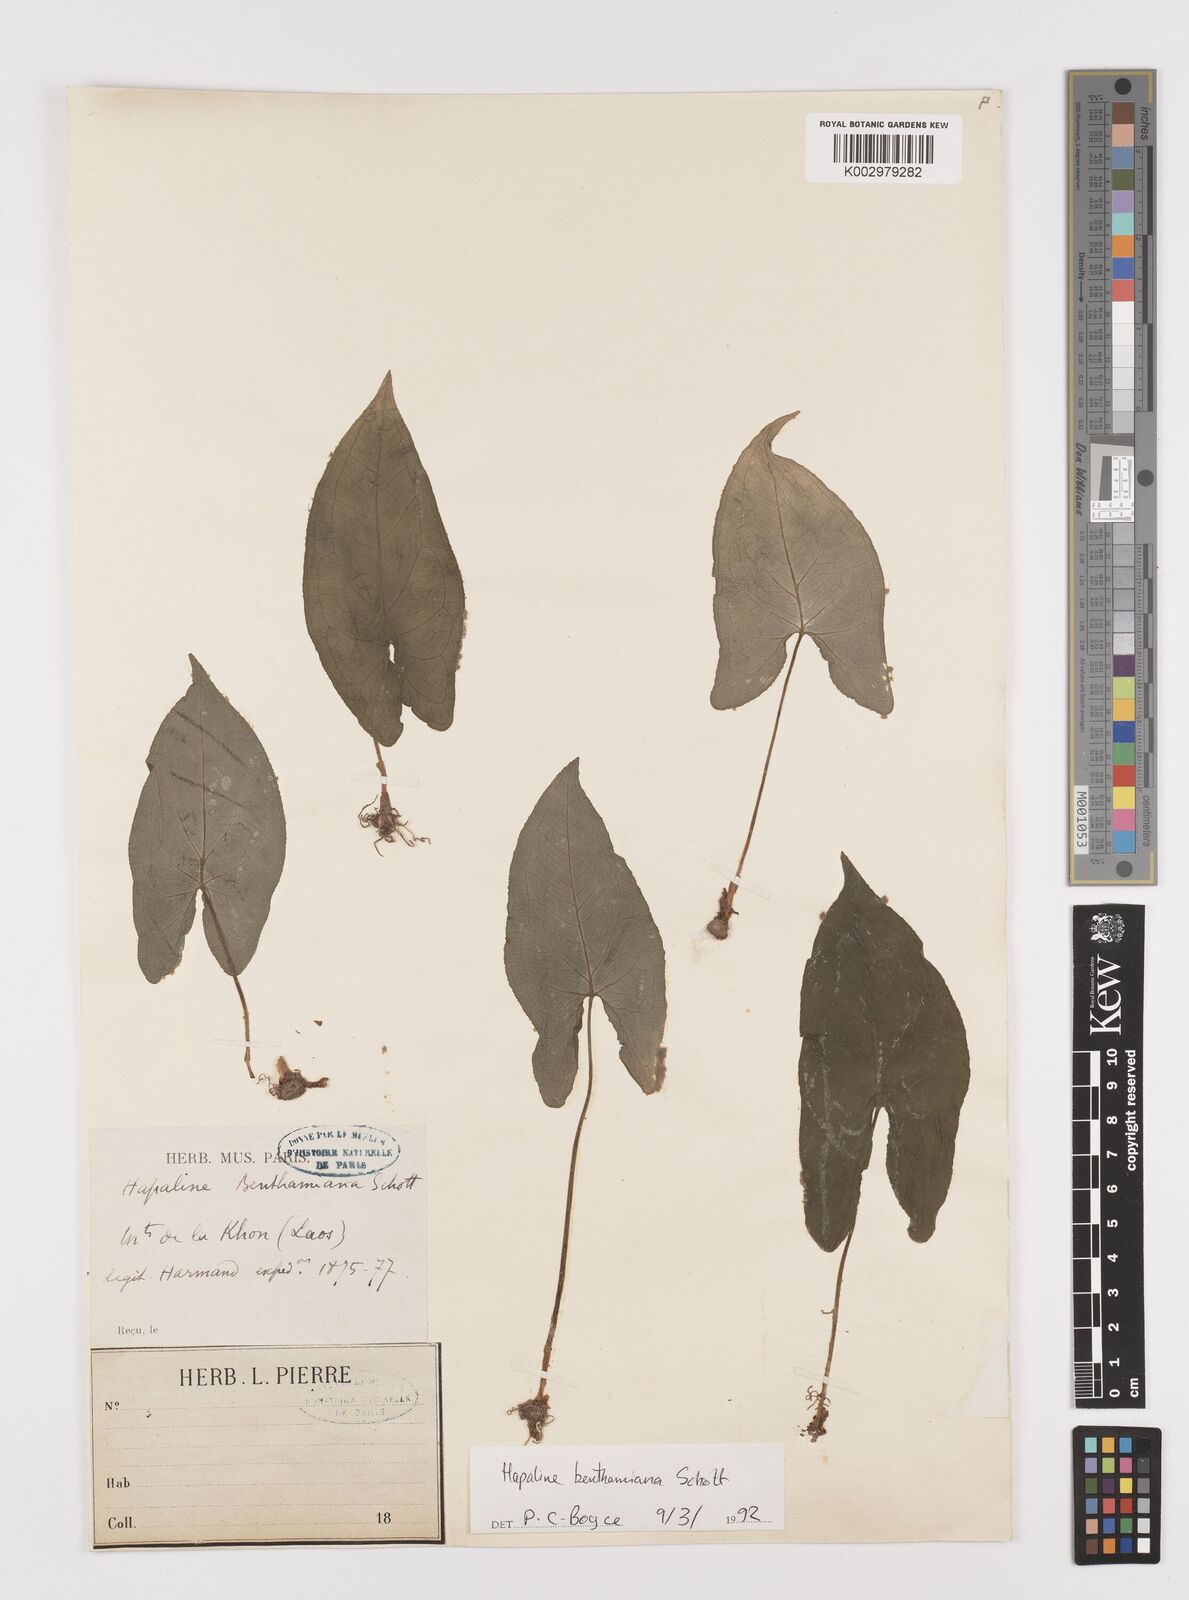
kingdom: Plantae
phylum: Tracheophyta
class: Liliopsida
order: Alismatales
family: Araceae
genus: Hapaline
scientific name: Hapaline benthamiana
